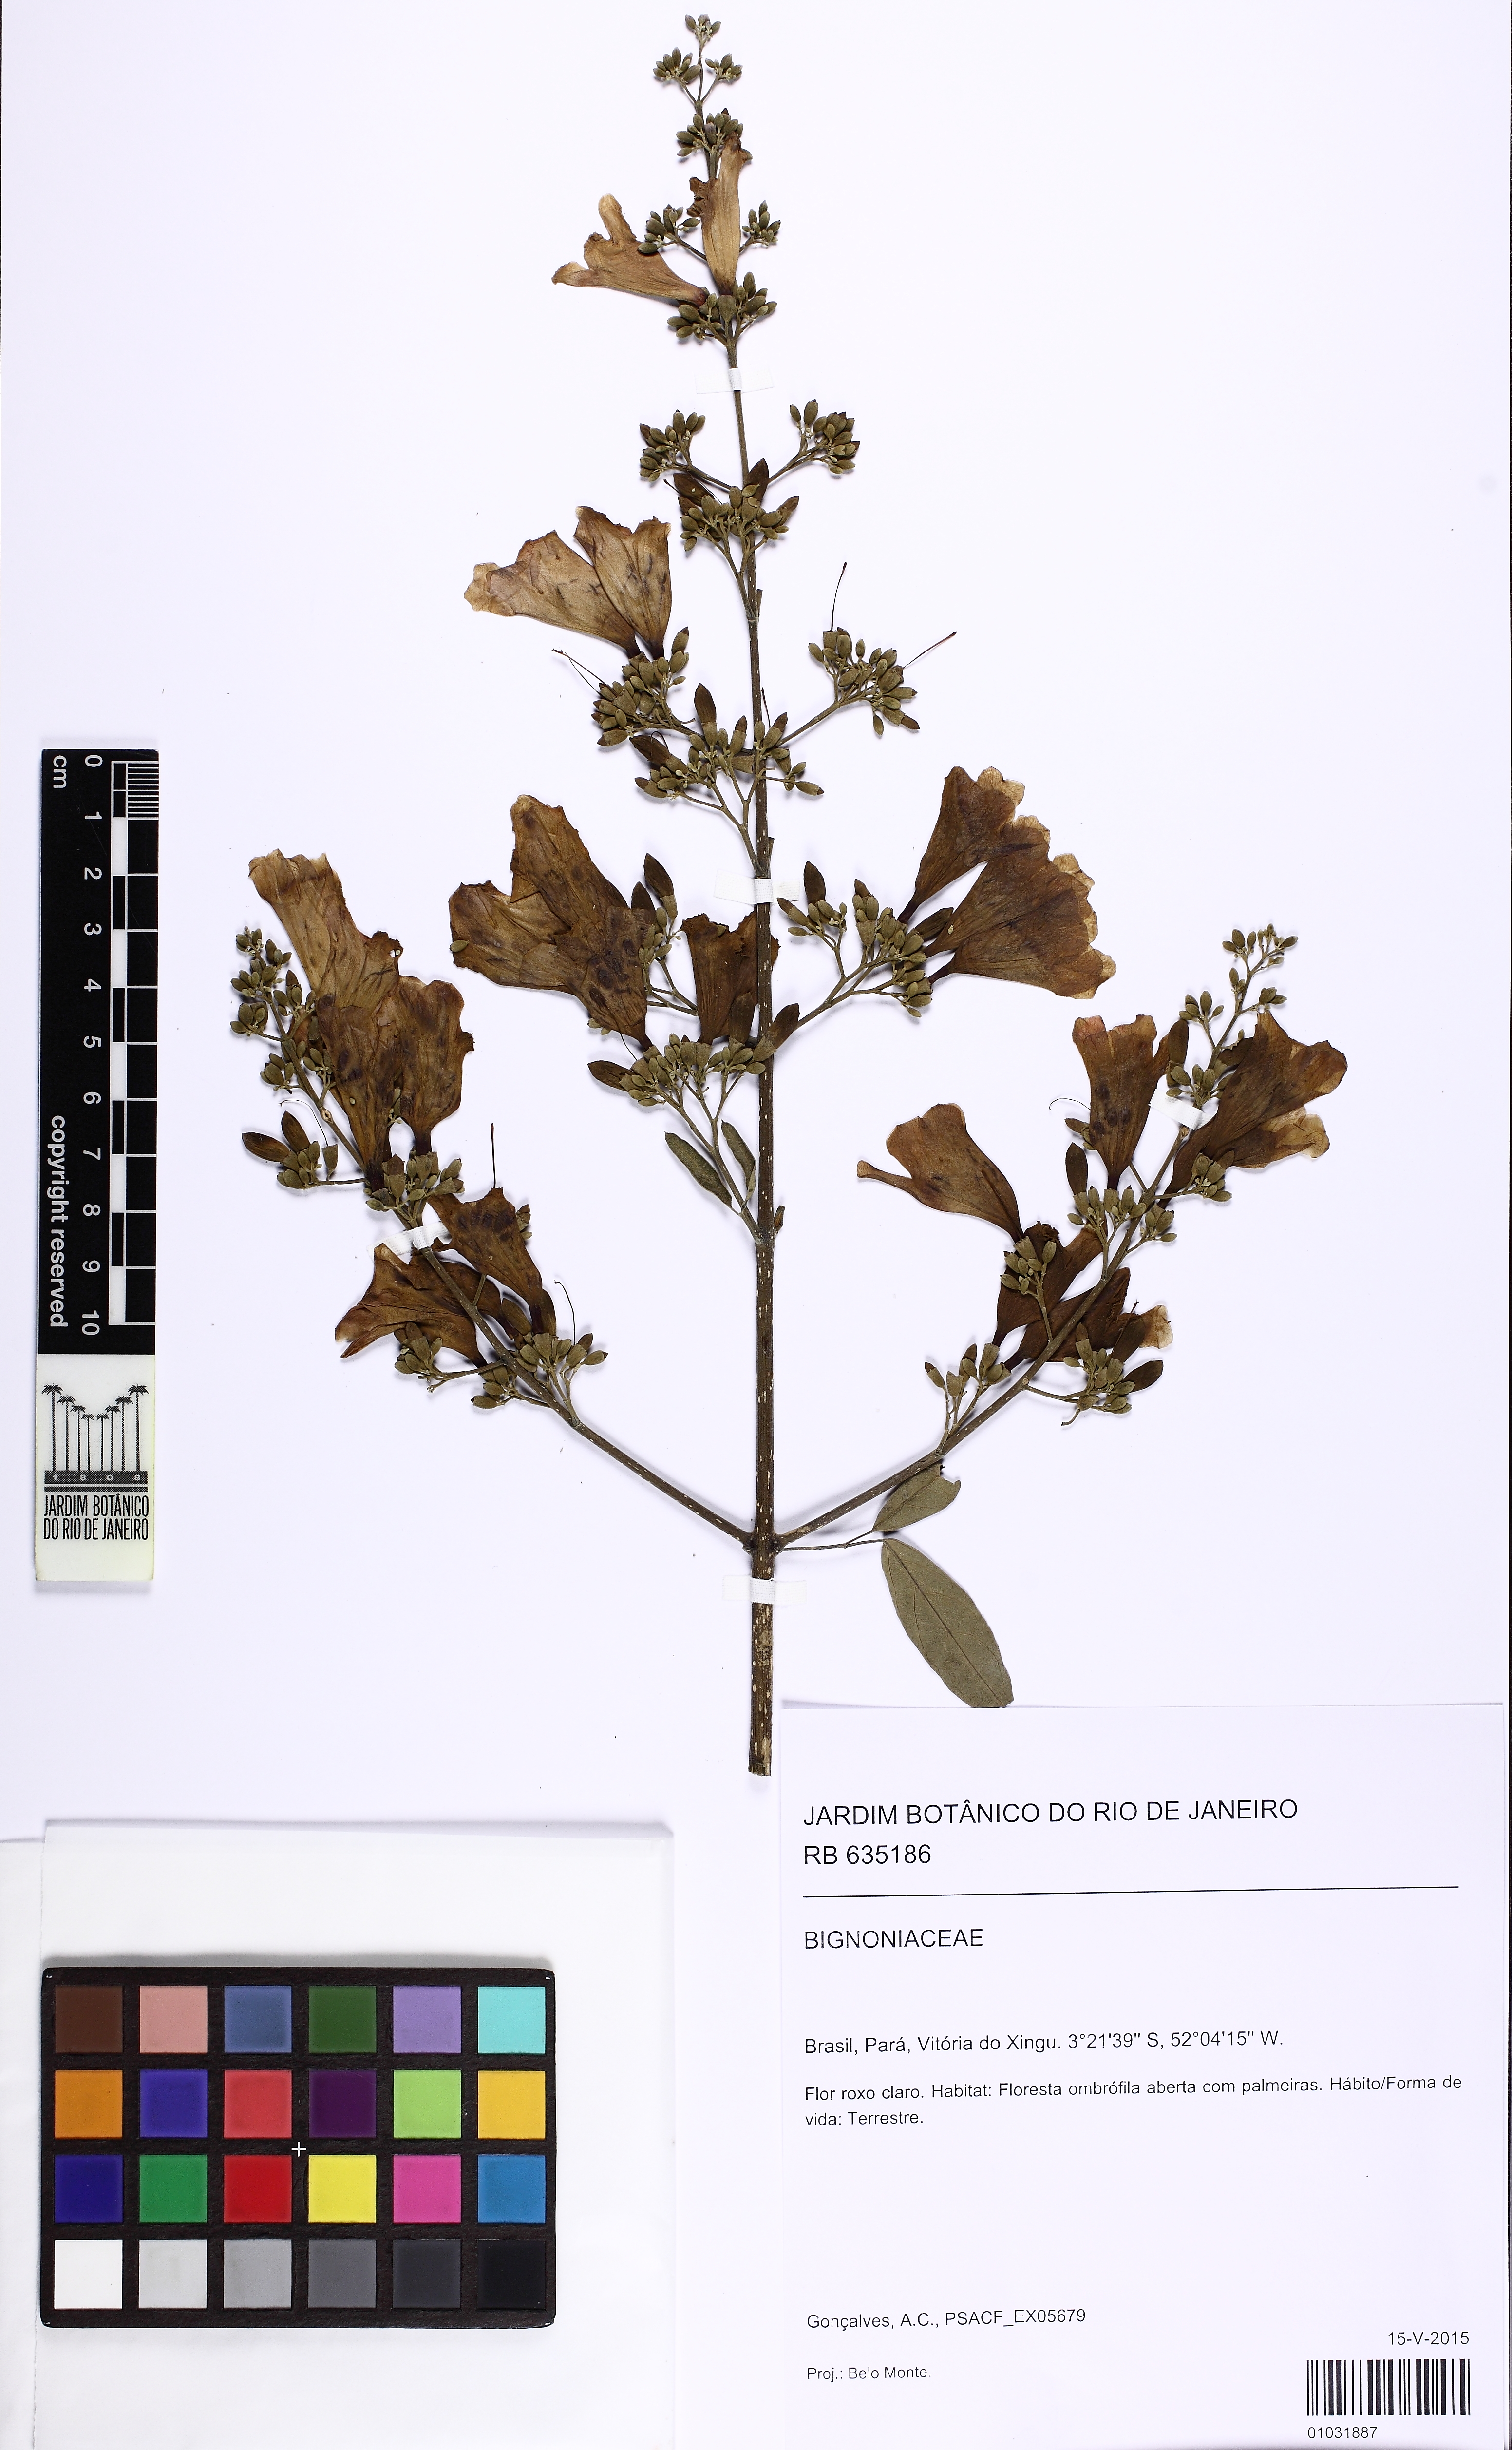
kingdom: Plantae
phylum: Tracheophyta
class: Magnoliopsida
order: Lamiales
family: Bignoniaceae
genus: Fridericia
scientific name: Fridericia
